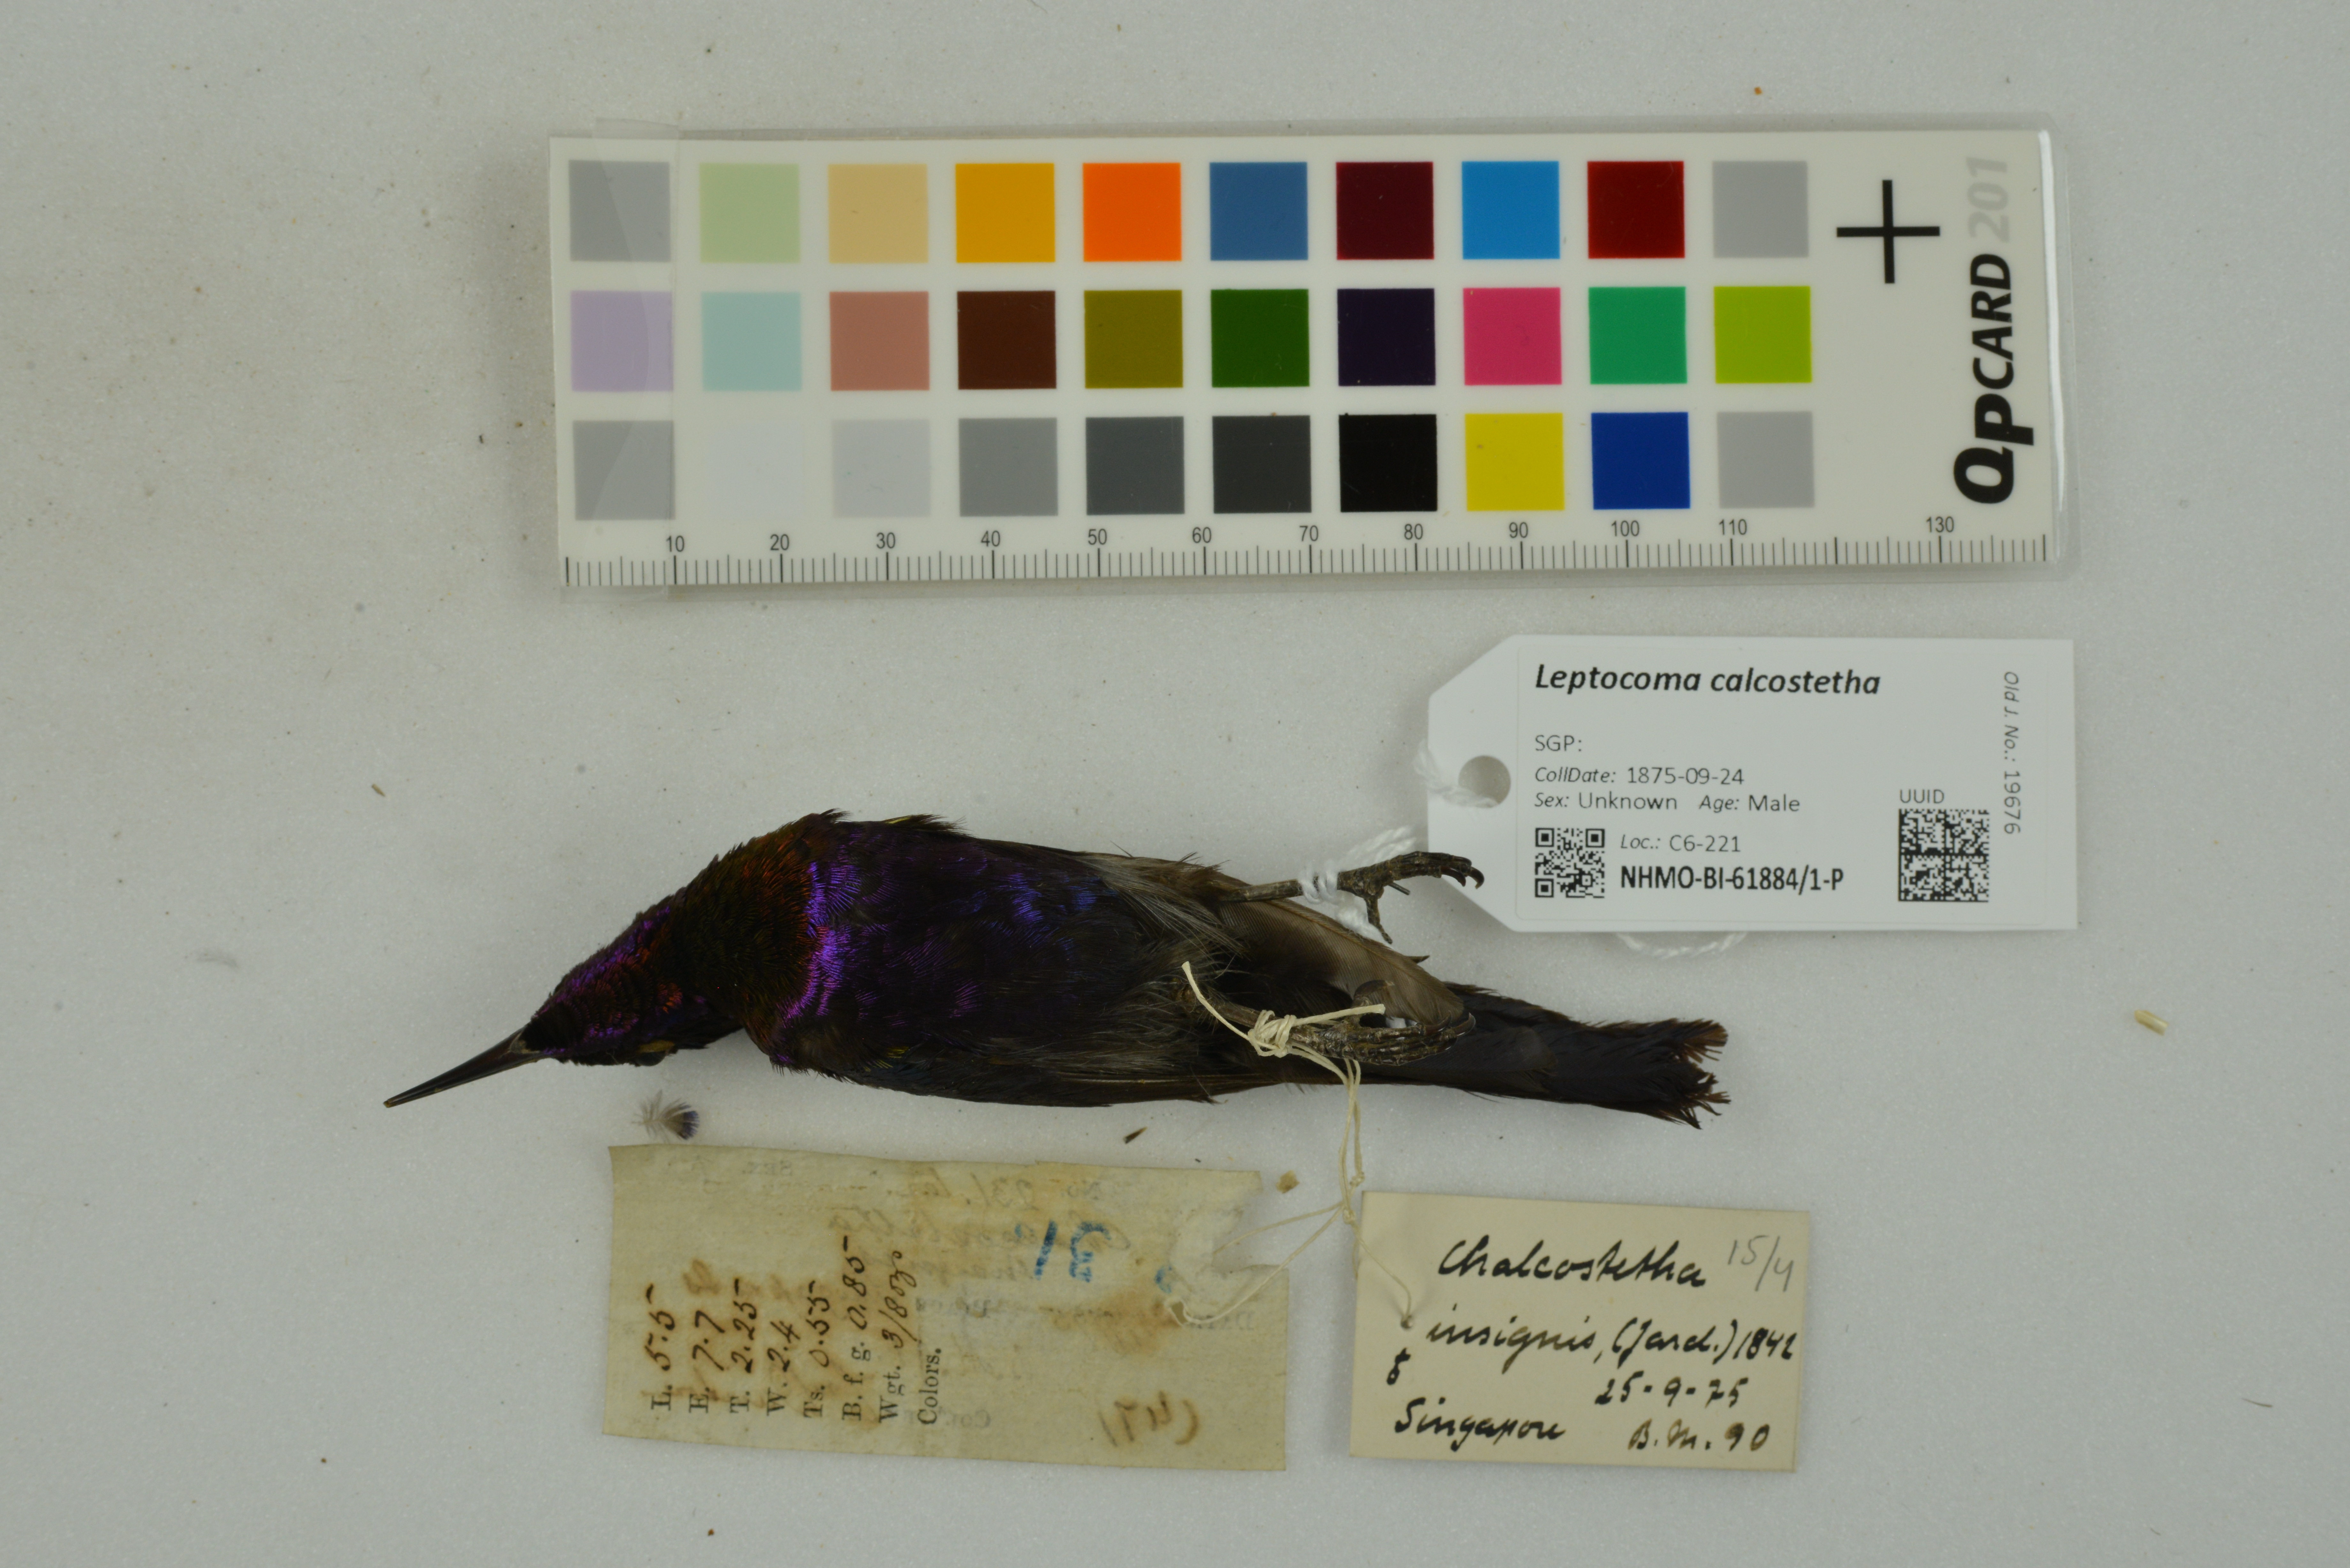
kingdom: Animalia
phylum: Chordata
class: Aves
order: Passeriformes
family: Nectariniidae
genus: Leptocoma
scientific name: Leptocoma calcostetha
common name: Copper-throated sunbird
